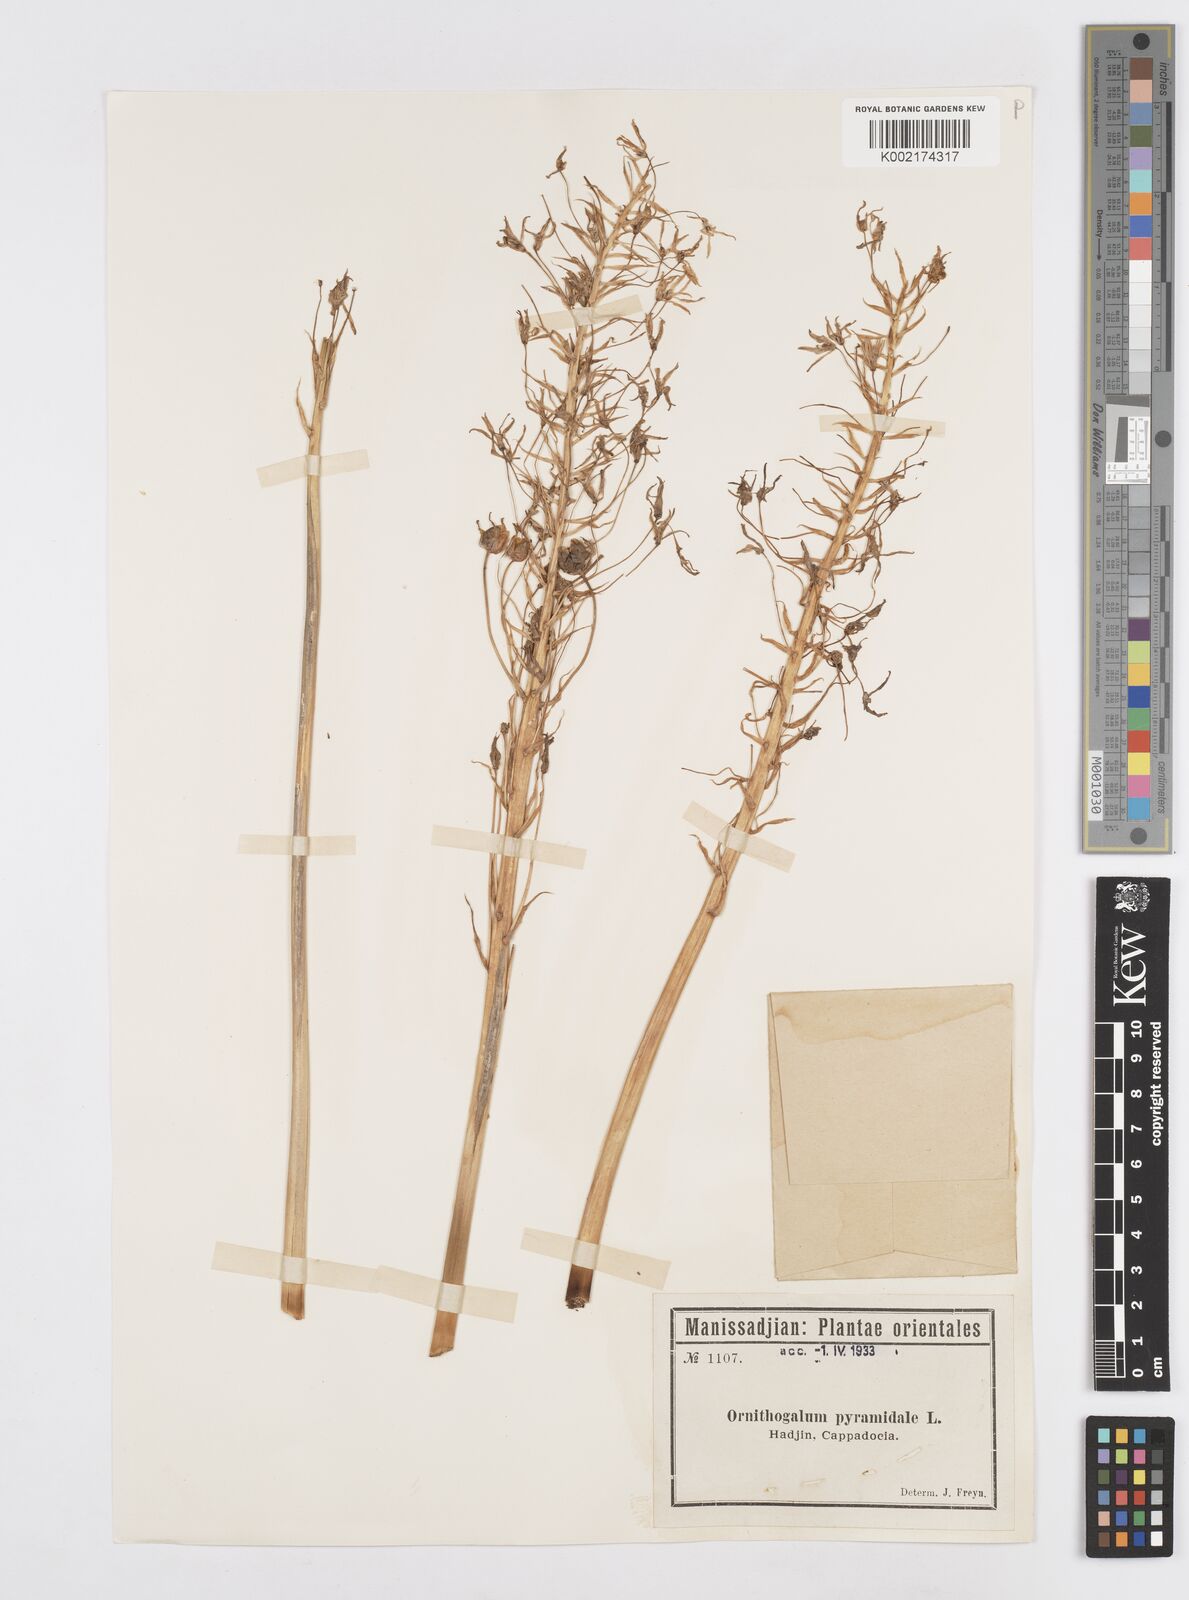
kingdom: Plantae
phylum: Tracheophyta
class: Liliopsida
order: Asparagales
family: Asparagaceae
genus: Ornithogalum
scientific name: Ornithogalum narbonense
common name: Bath-asparagus
